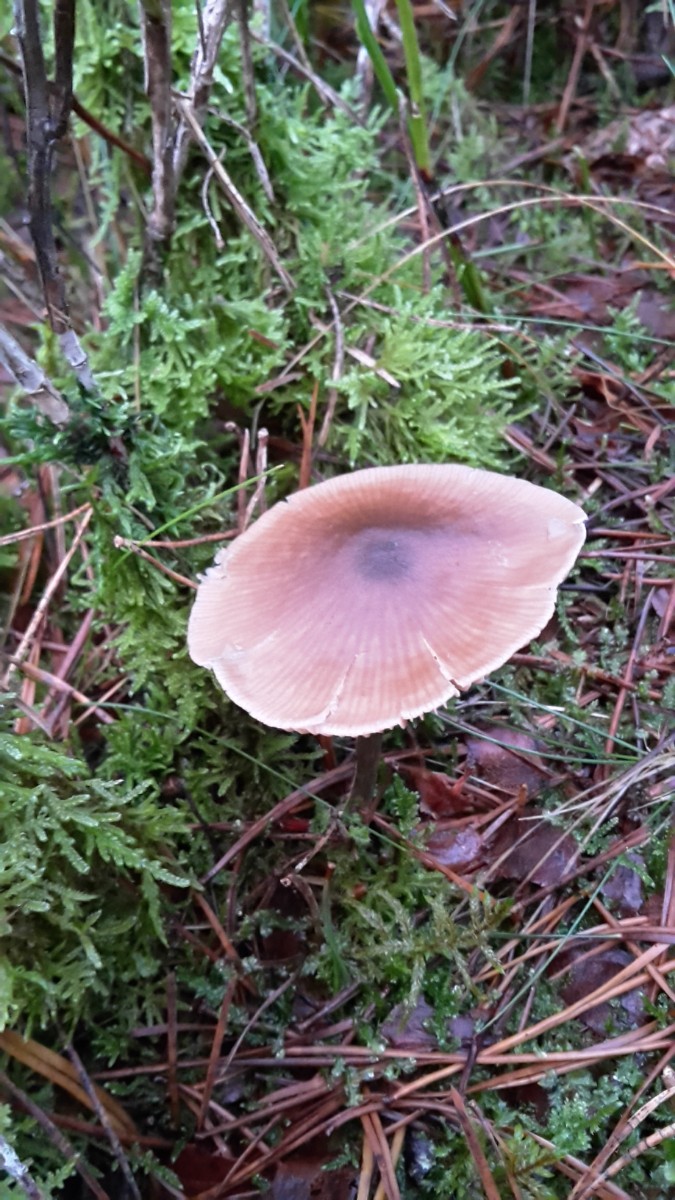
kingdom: Fungi
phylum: Basidiomycota
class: Agaricomycetes
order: Agaricales
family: Entolomataceae
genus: Entoloma
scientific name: Entoloma cetratum
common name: voks-rødblad
